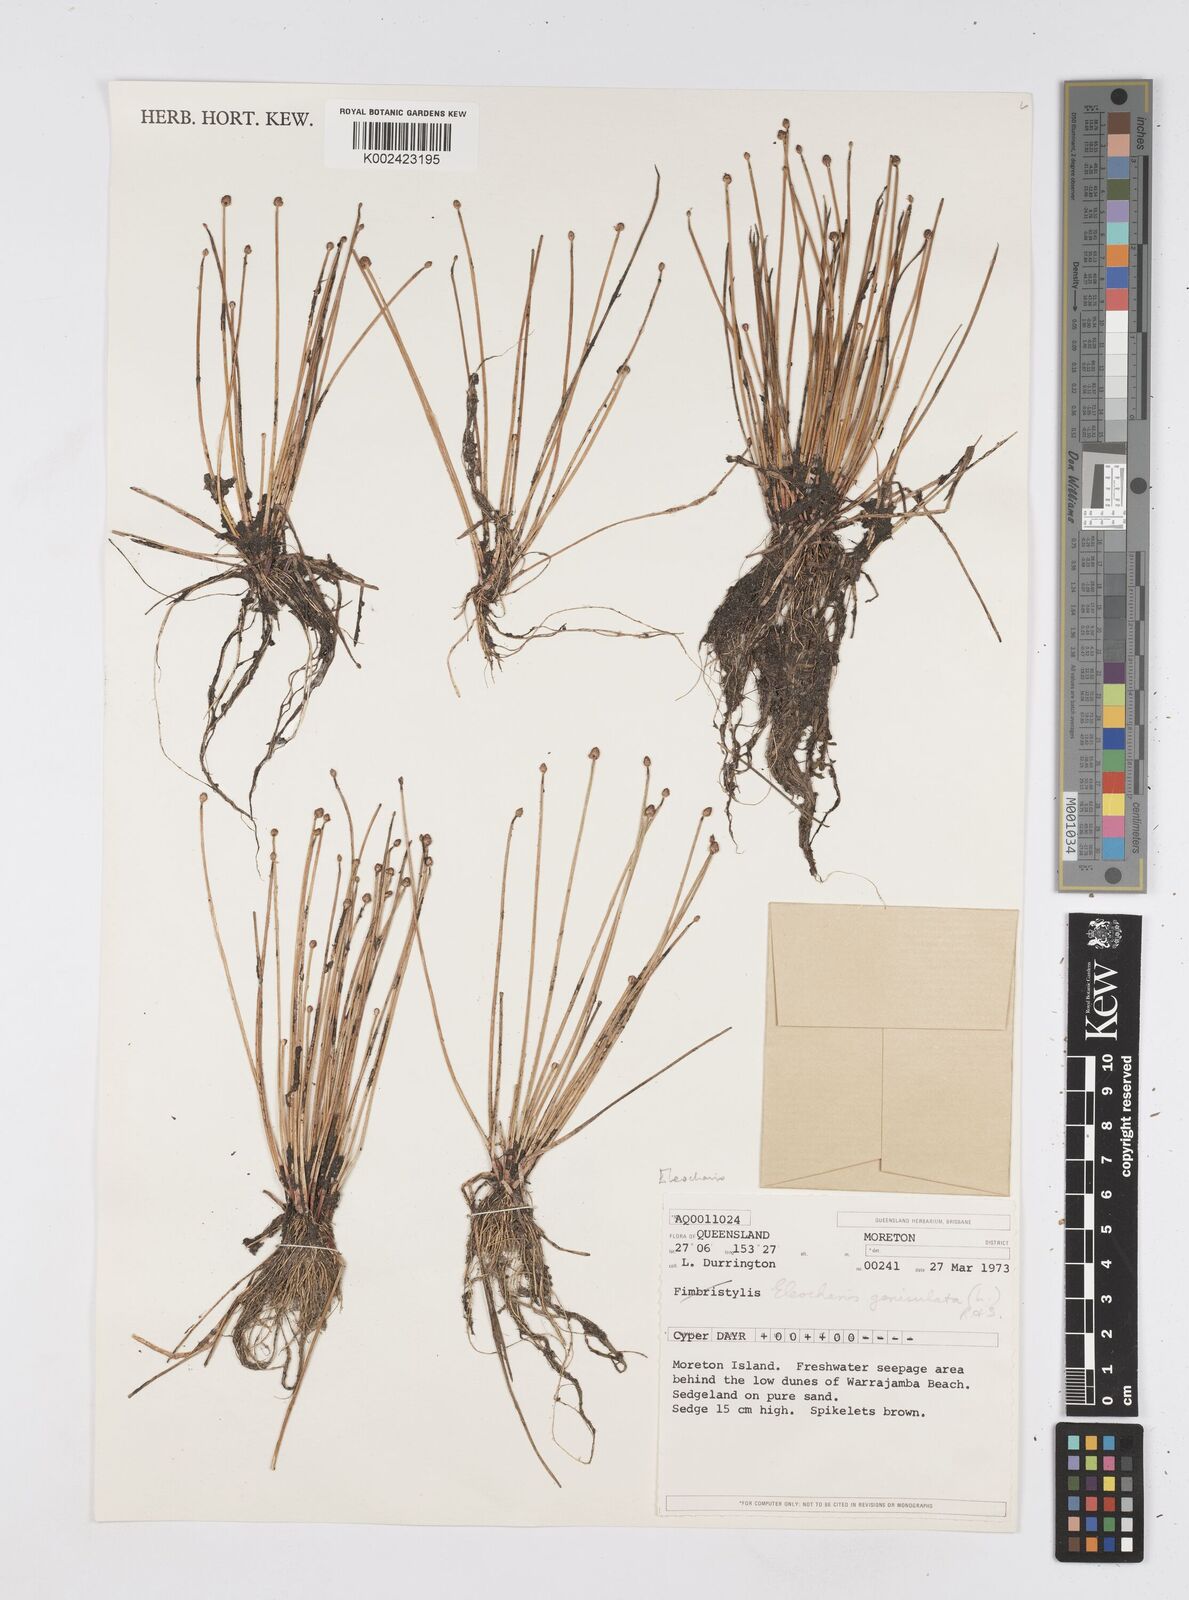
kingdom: Plantae
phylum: Tracheophyta
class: Liliopsida
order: Poales
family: Cyperaceae
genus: Eleocharis
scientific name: Eleocharis geniculata
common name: Canada spikesedge
